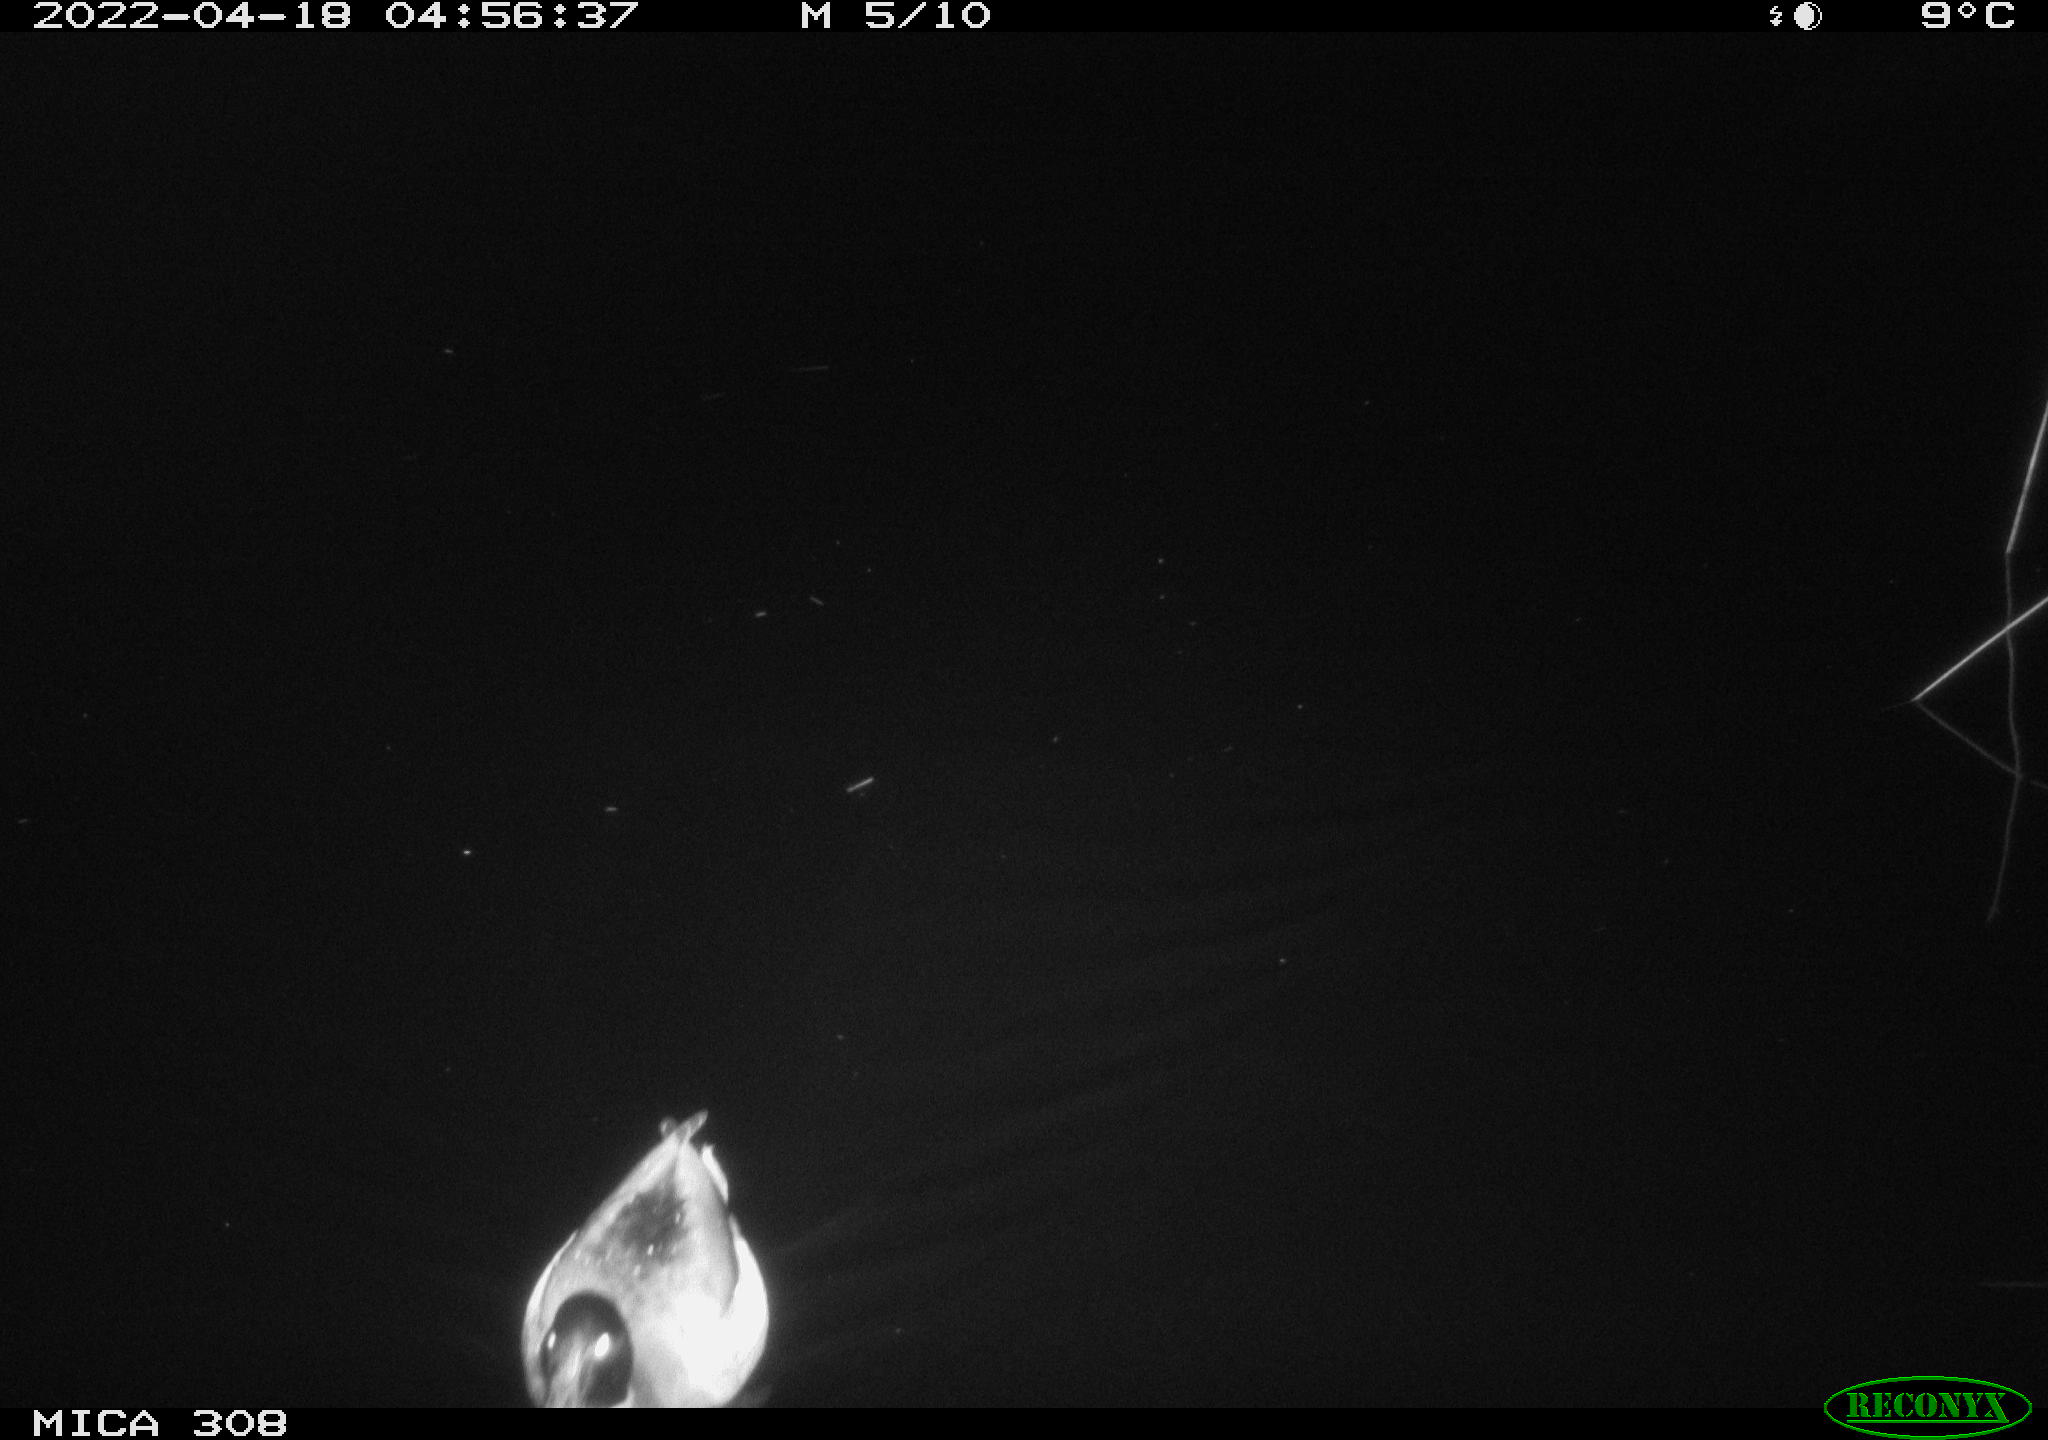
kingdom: Animalia
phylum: Chordata
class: Aves
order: Anseriformes
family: Anatidae
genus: Anas
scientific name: Anas platyrhynchos
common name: Mallard
